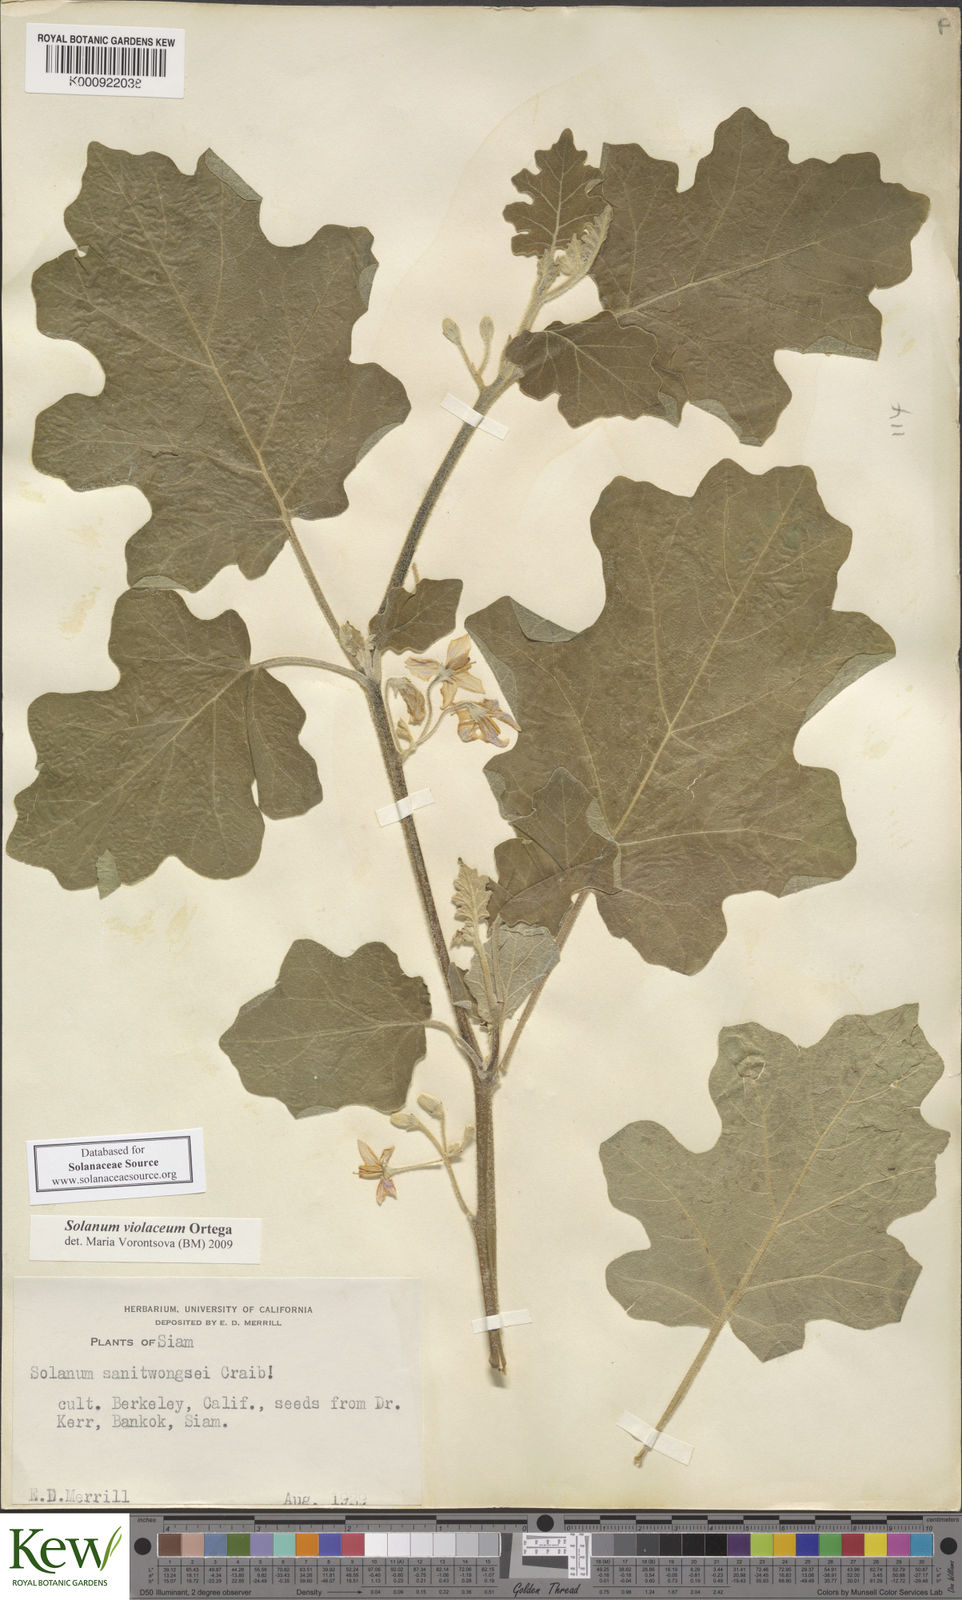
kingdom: Plantae
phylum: Tracheophyta
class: Magnoliopsida
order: Solanales
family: Solanaceae
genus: Solanum
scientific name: Solanum violaceum
